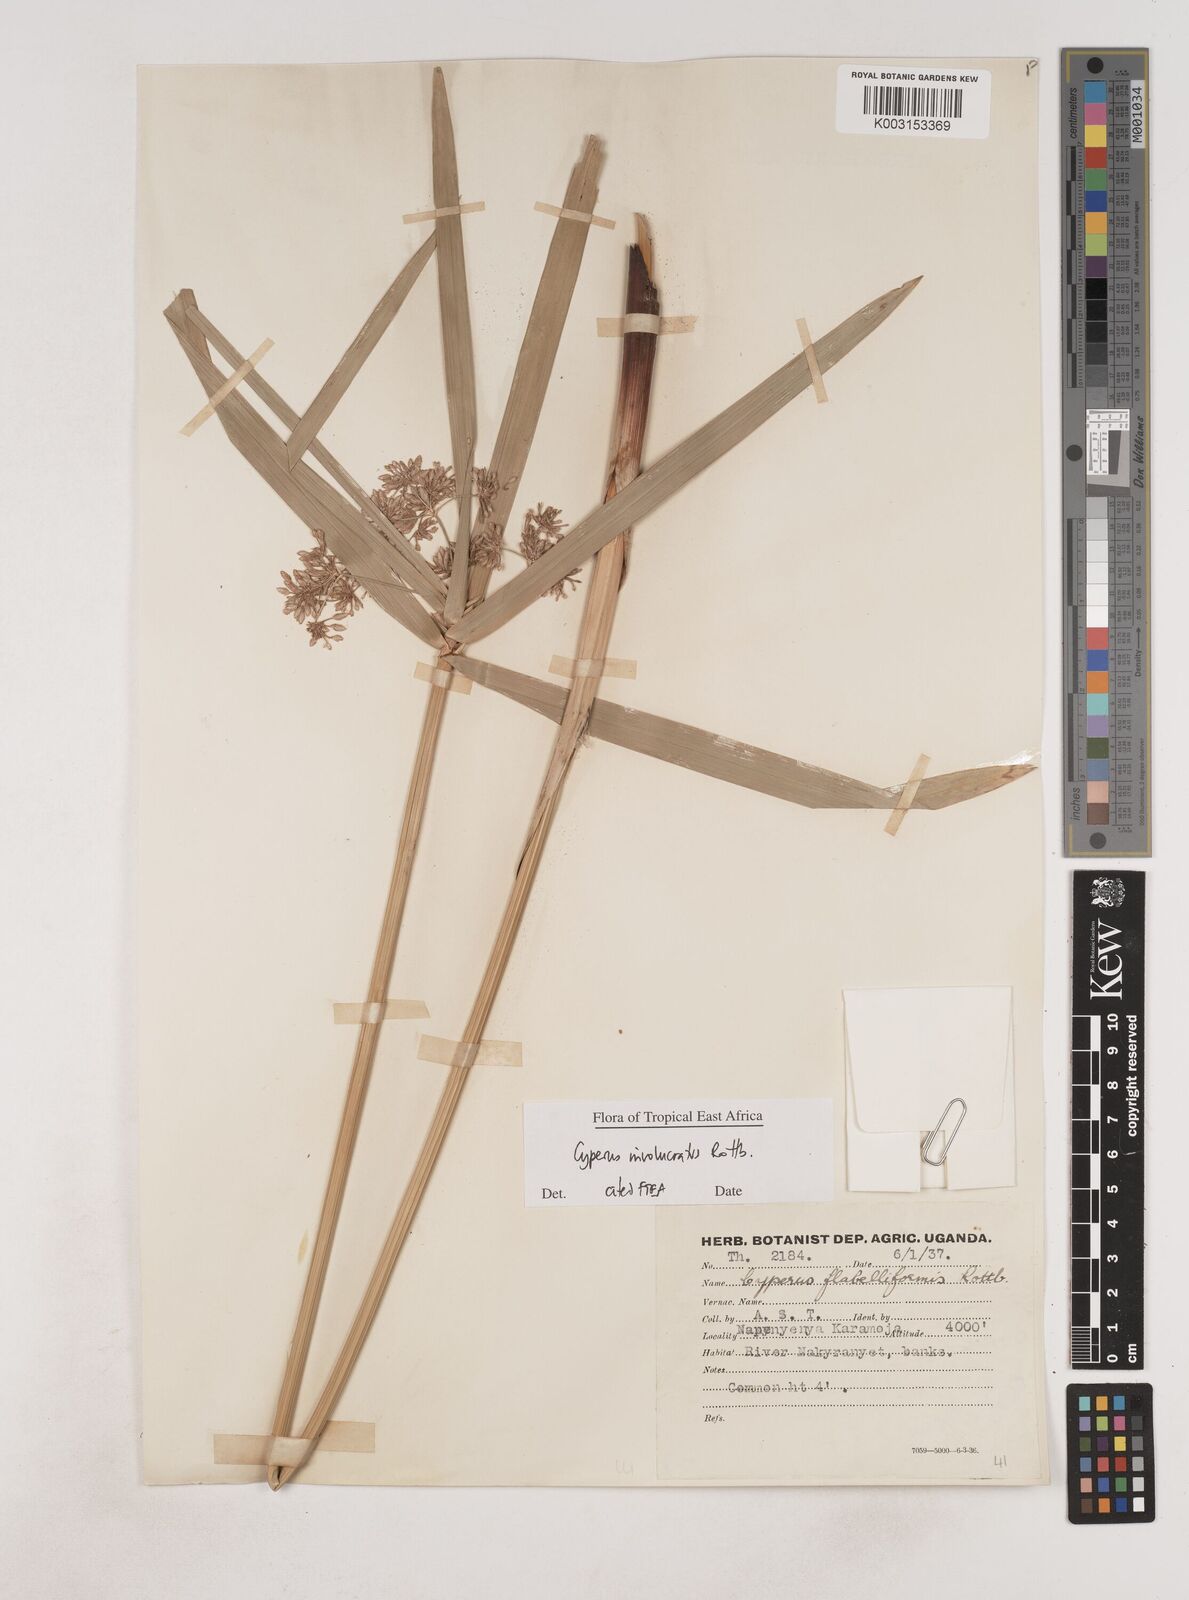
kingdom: Plantae
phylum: Tracheophyta
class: Liliopsida
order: Poales
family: Cyperaceae
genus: Cyperus
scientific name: Cyperus alternifolius
